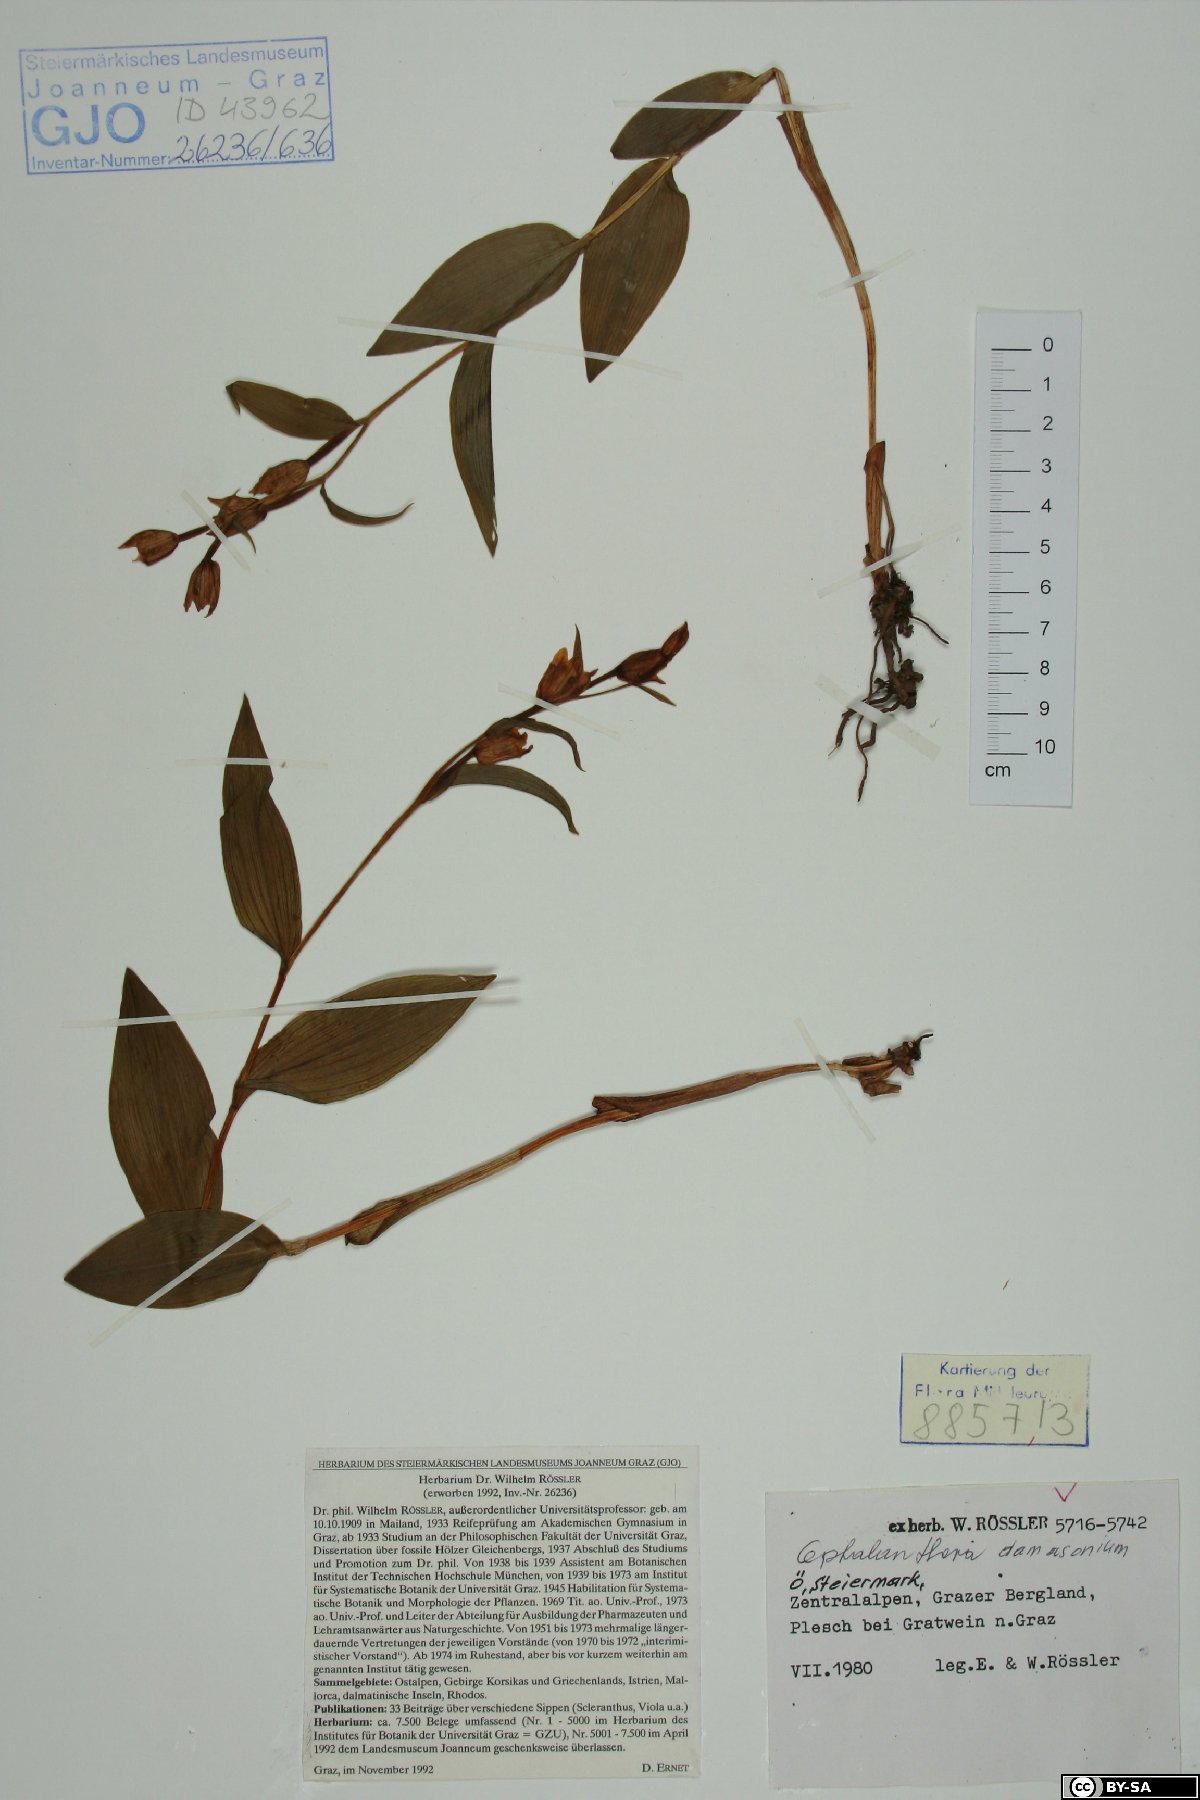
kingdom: Plantae
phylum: Tracheophyta
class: Liliopsida
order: Asparagales
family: Orchidaceae
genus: Cephalanthera
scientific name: Cephalanthera damasonium
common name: White helleborine
